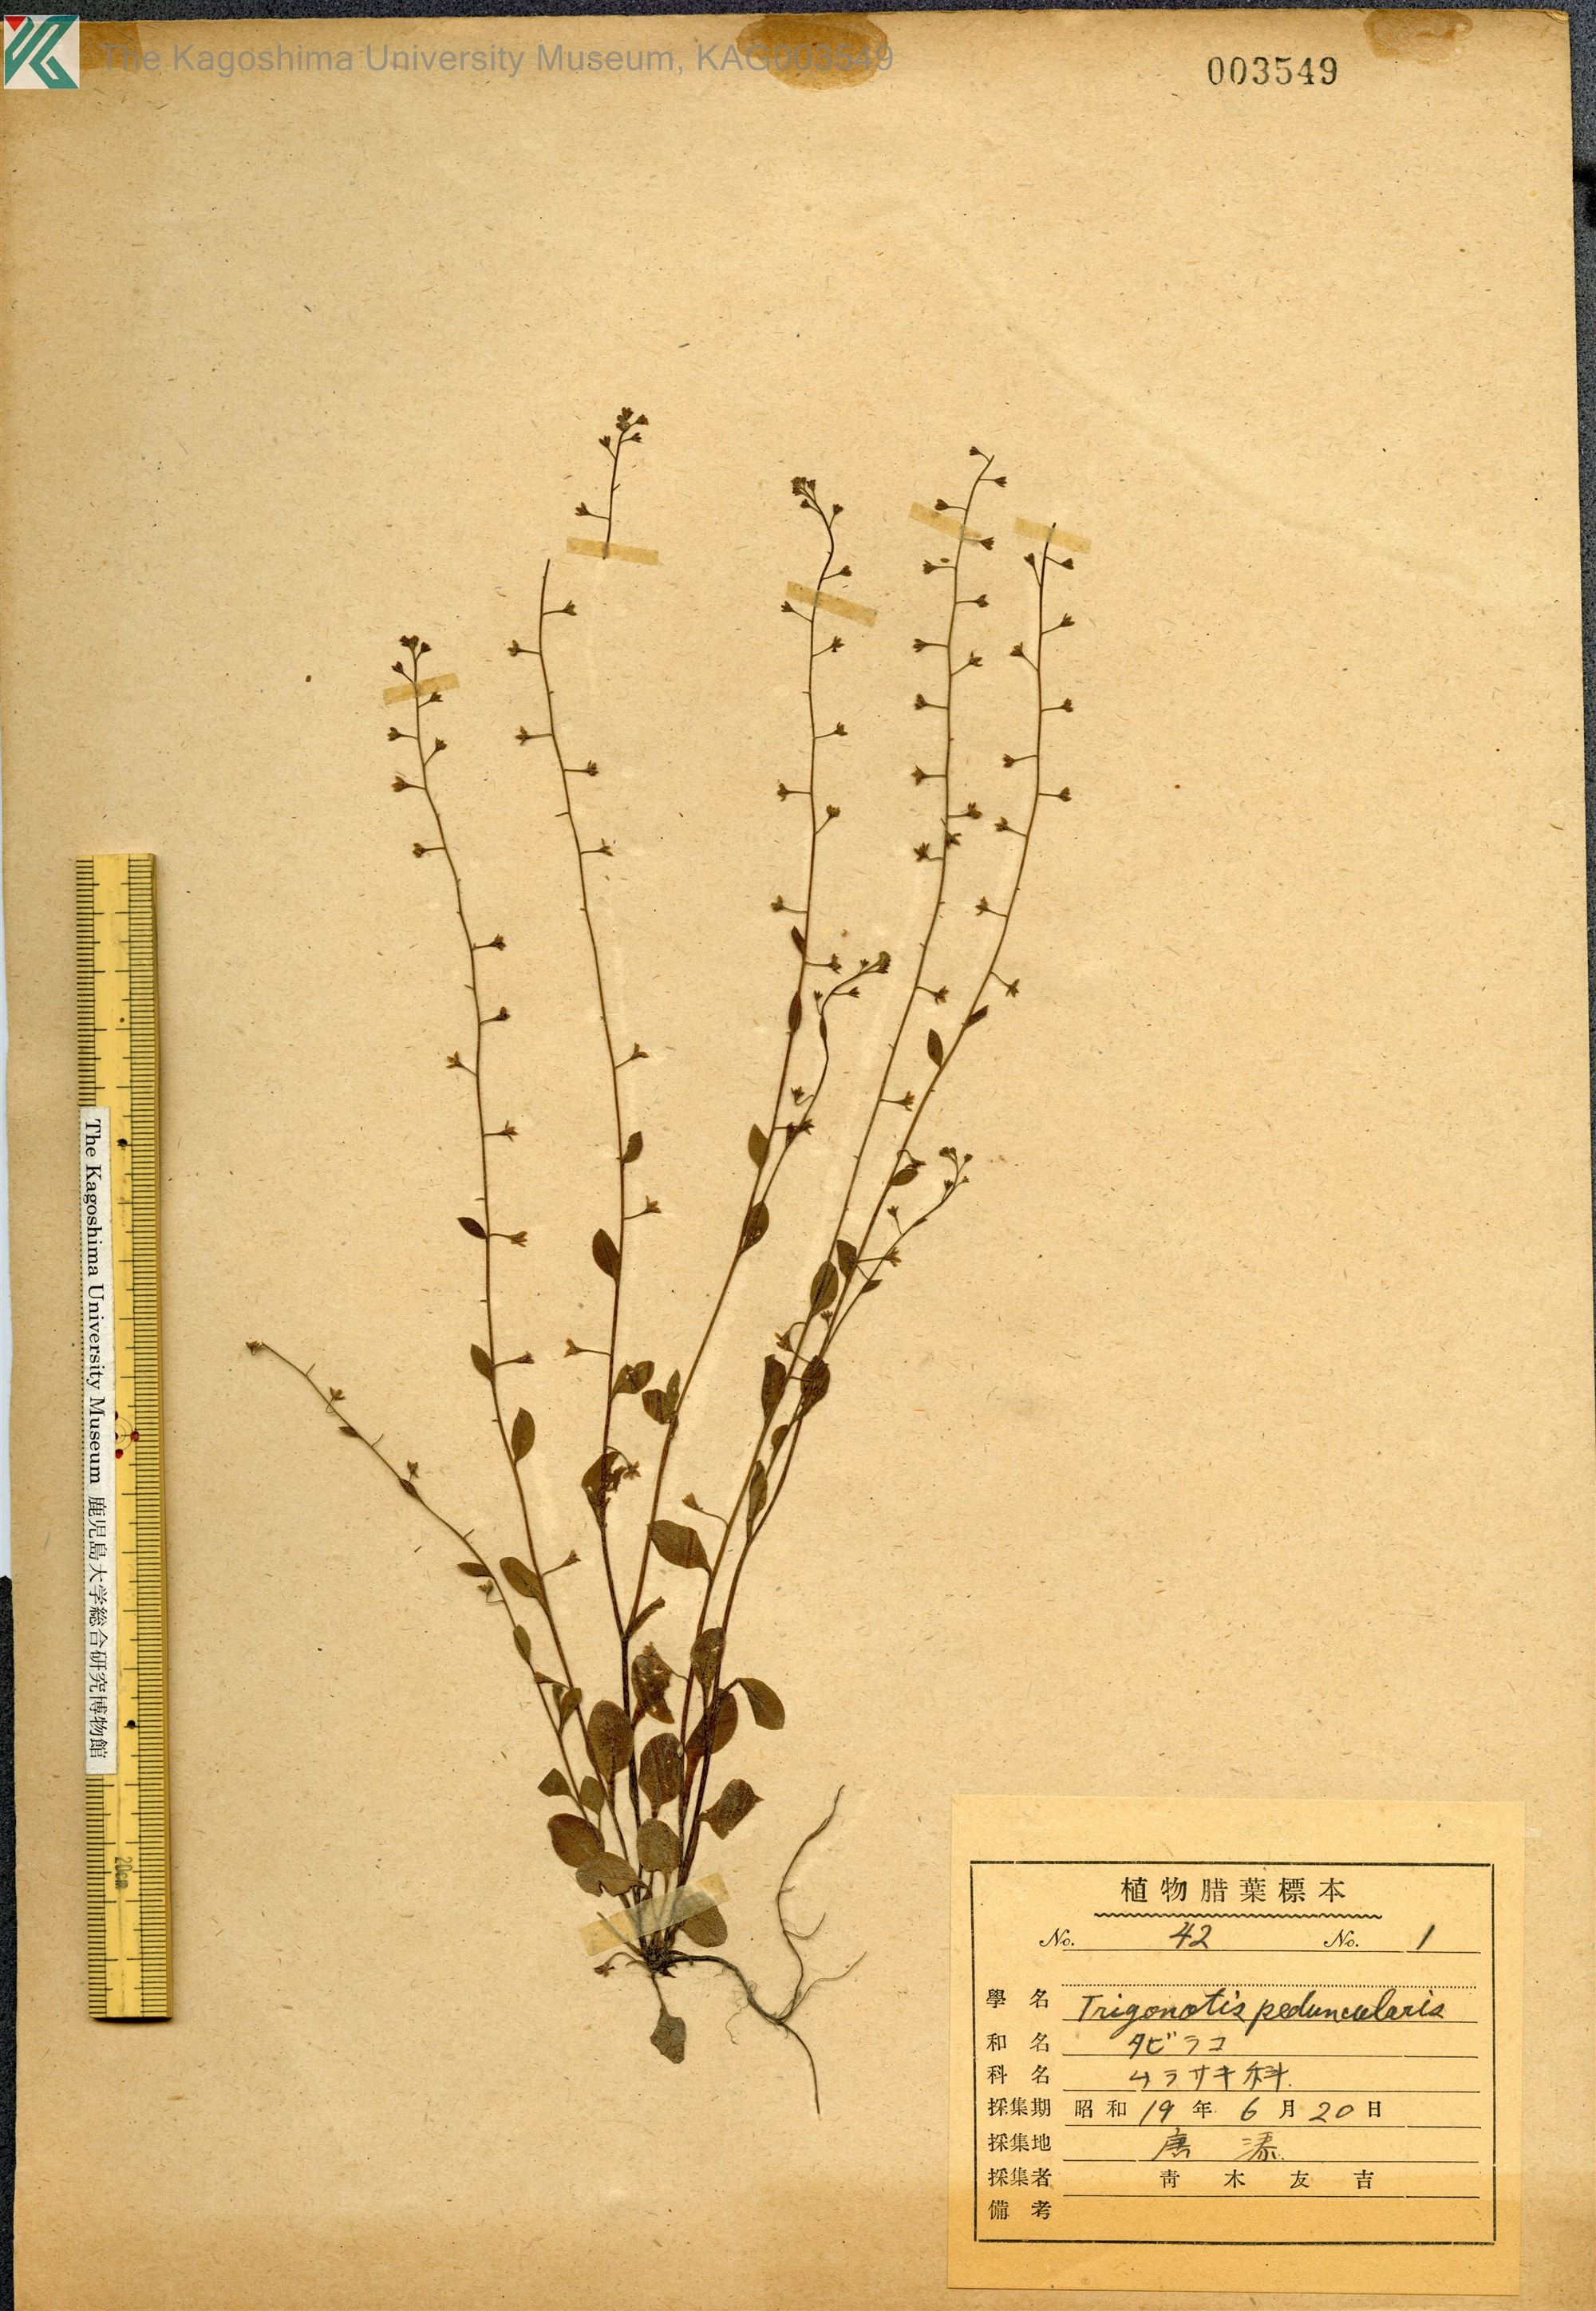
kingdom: Plantae
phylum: Tracheophyta
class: Magnoliopsida
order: Boraginales
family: Boraginaceae
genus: Trigonotis
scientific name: Trigonotis peduncularis
